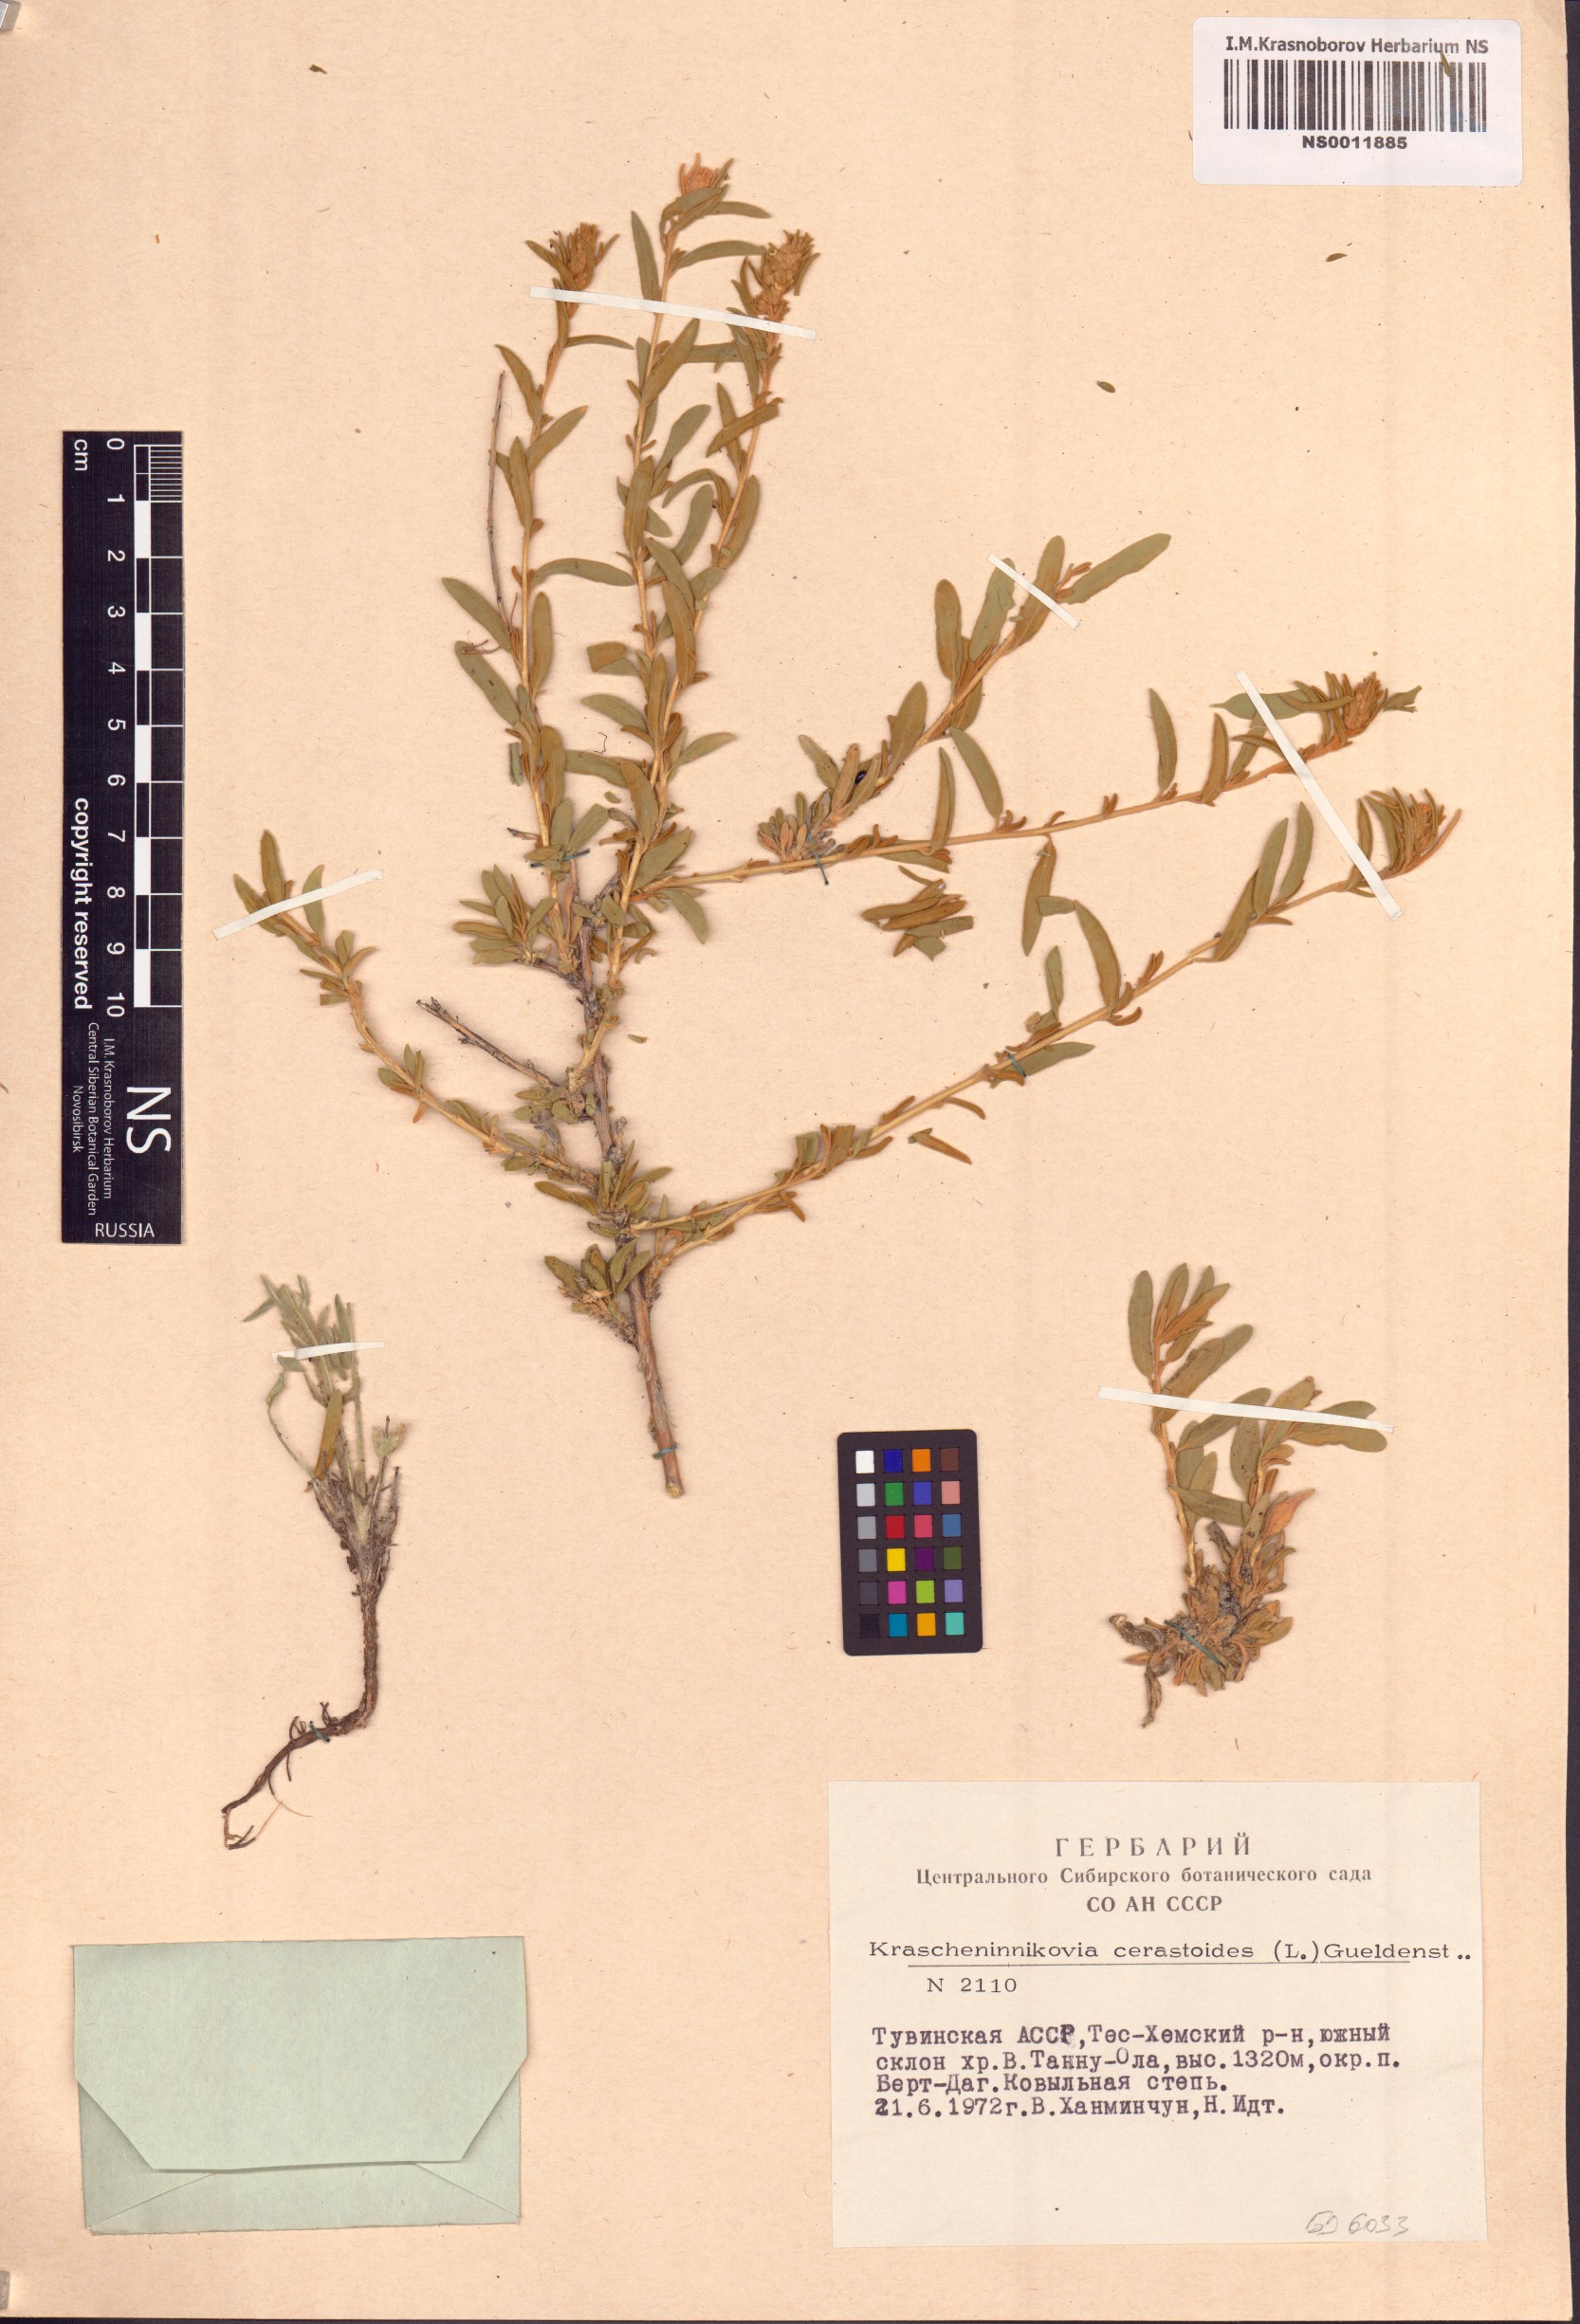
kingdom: Plantae
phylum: Tracheophyta
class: Magnoliopsida
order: Caryophyllales
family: Amaranthaceae
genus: Krascheninnikovia
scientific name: Krascheninnikovia ceratoides
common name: Pamirian winterfat
